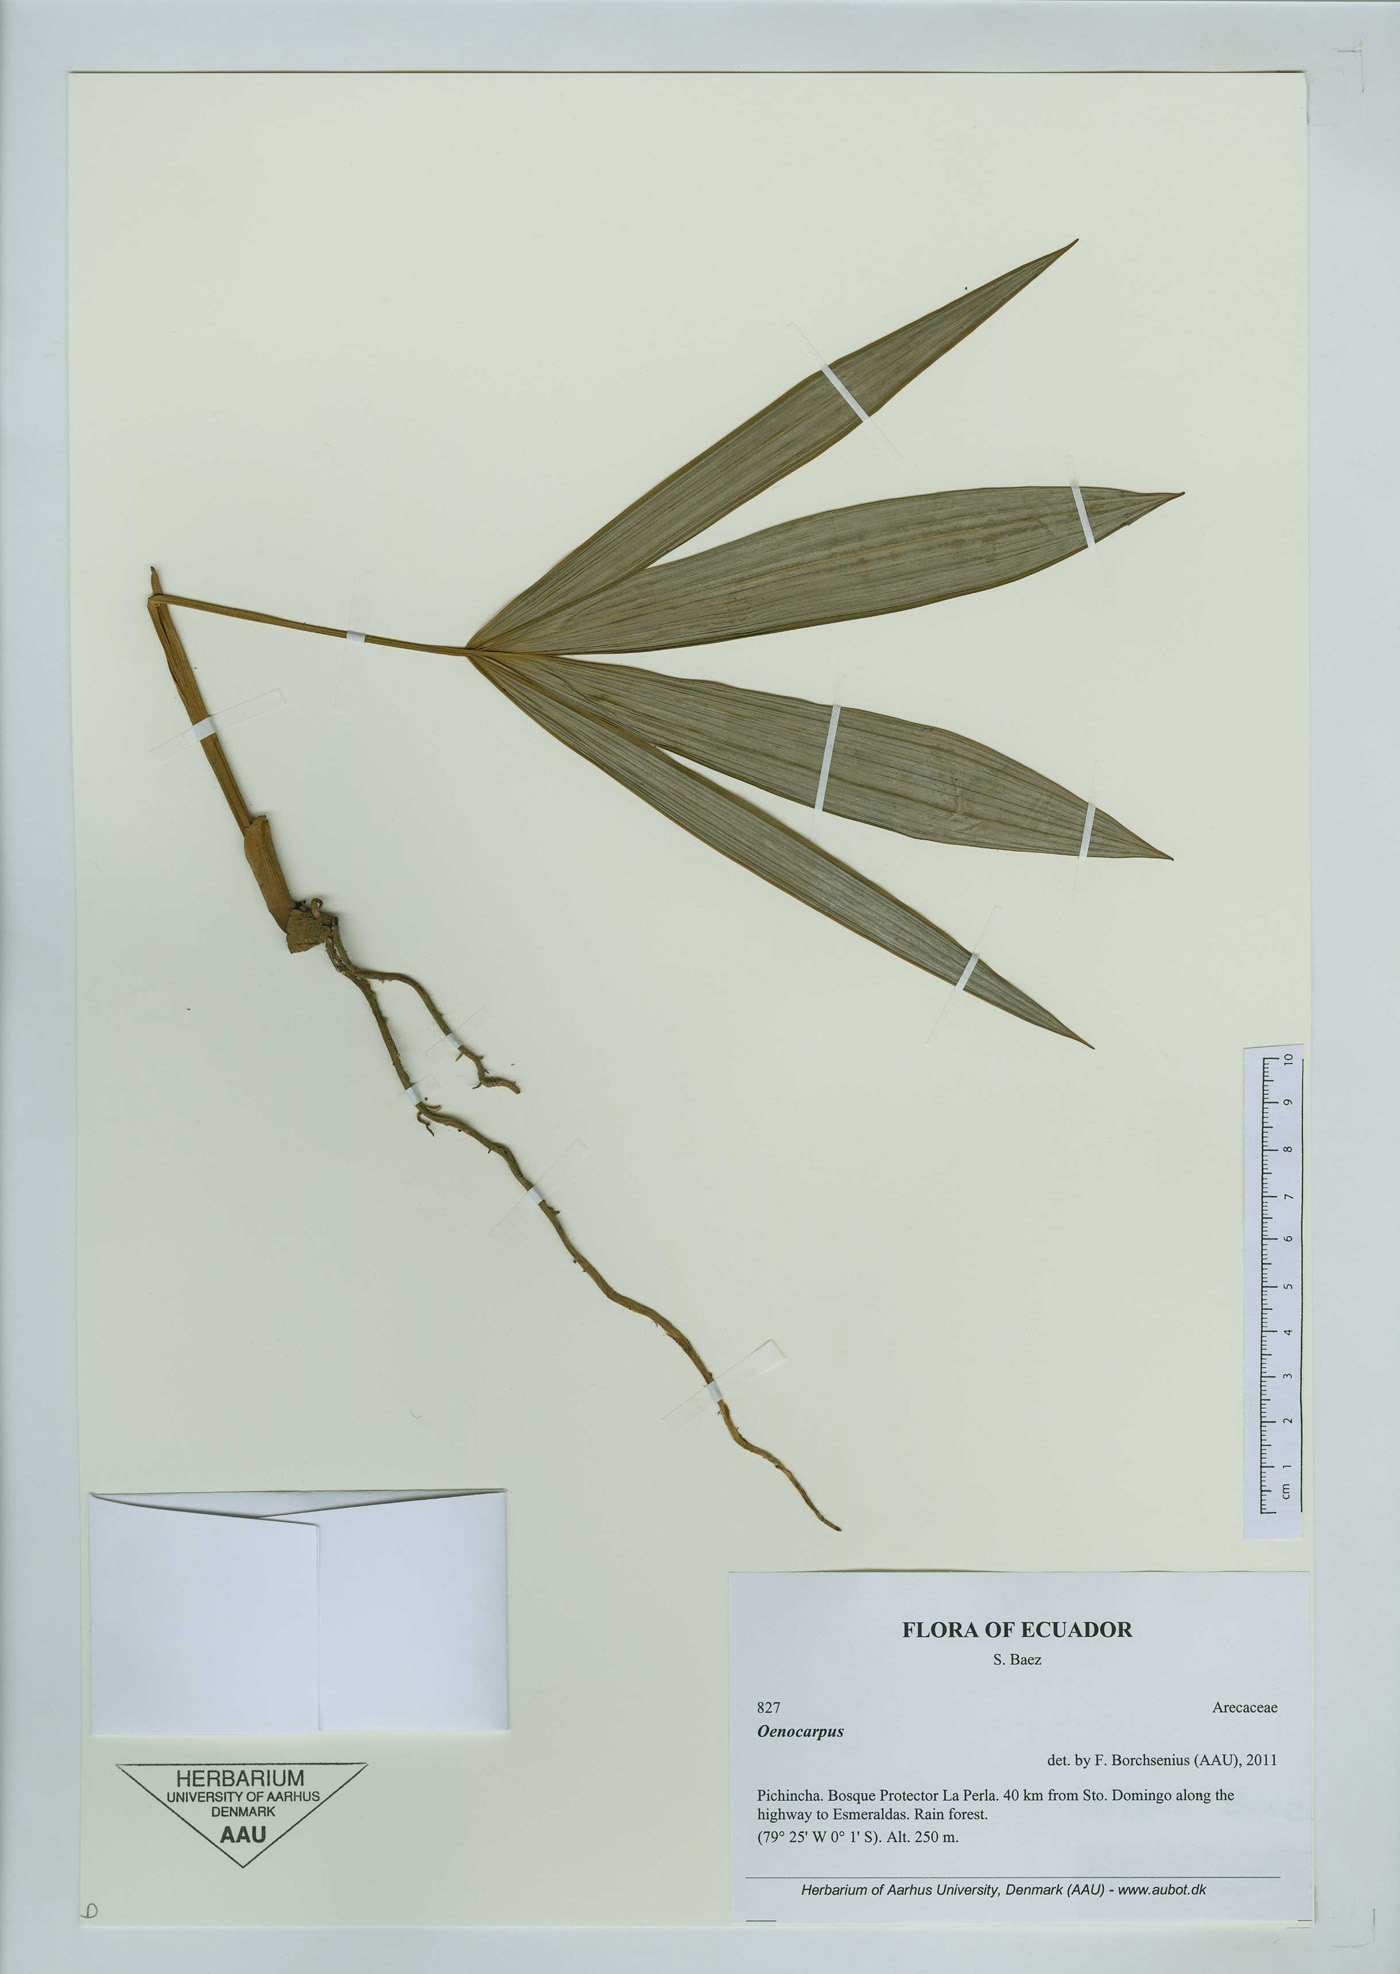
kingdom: Plantae
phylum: Tracheophyta
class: Liliopsida
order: Arecales
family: Arecaceae
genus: Oenocarpus
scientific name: Oenocarpus
